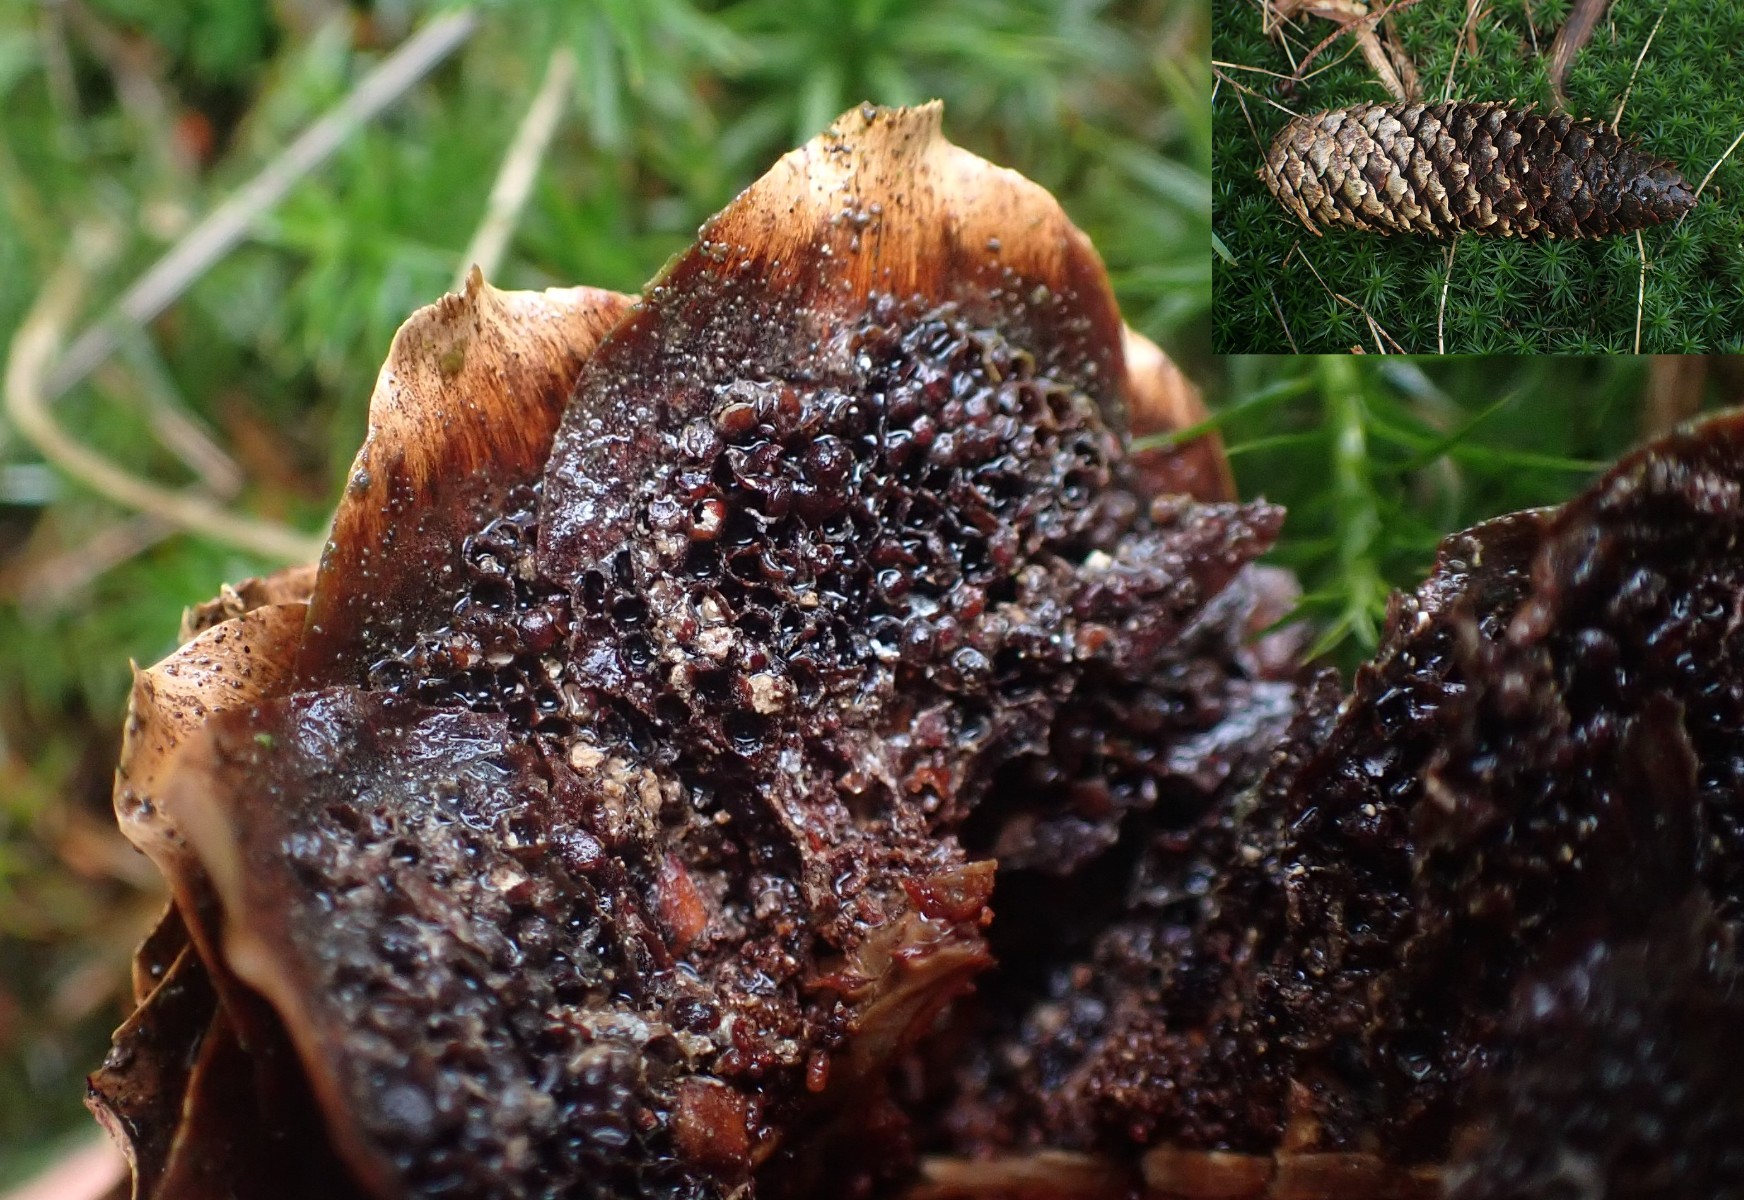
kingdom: Fungi
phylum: Basidiomycota
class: Pucciniomycetes
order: Pucciniales
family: Pucciniastraceae
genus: Thekopsora
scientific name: Thekopsora areolata
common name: grankogle-nålerust
